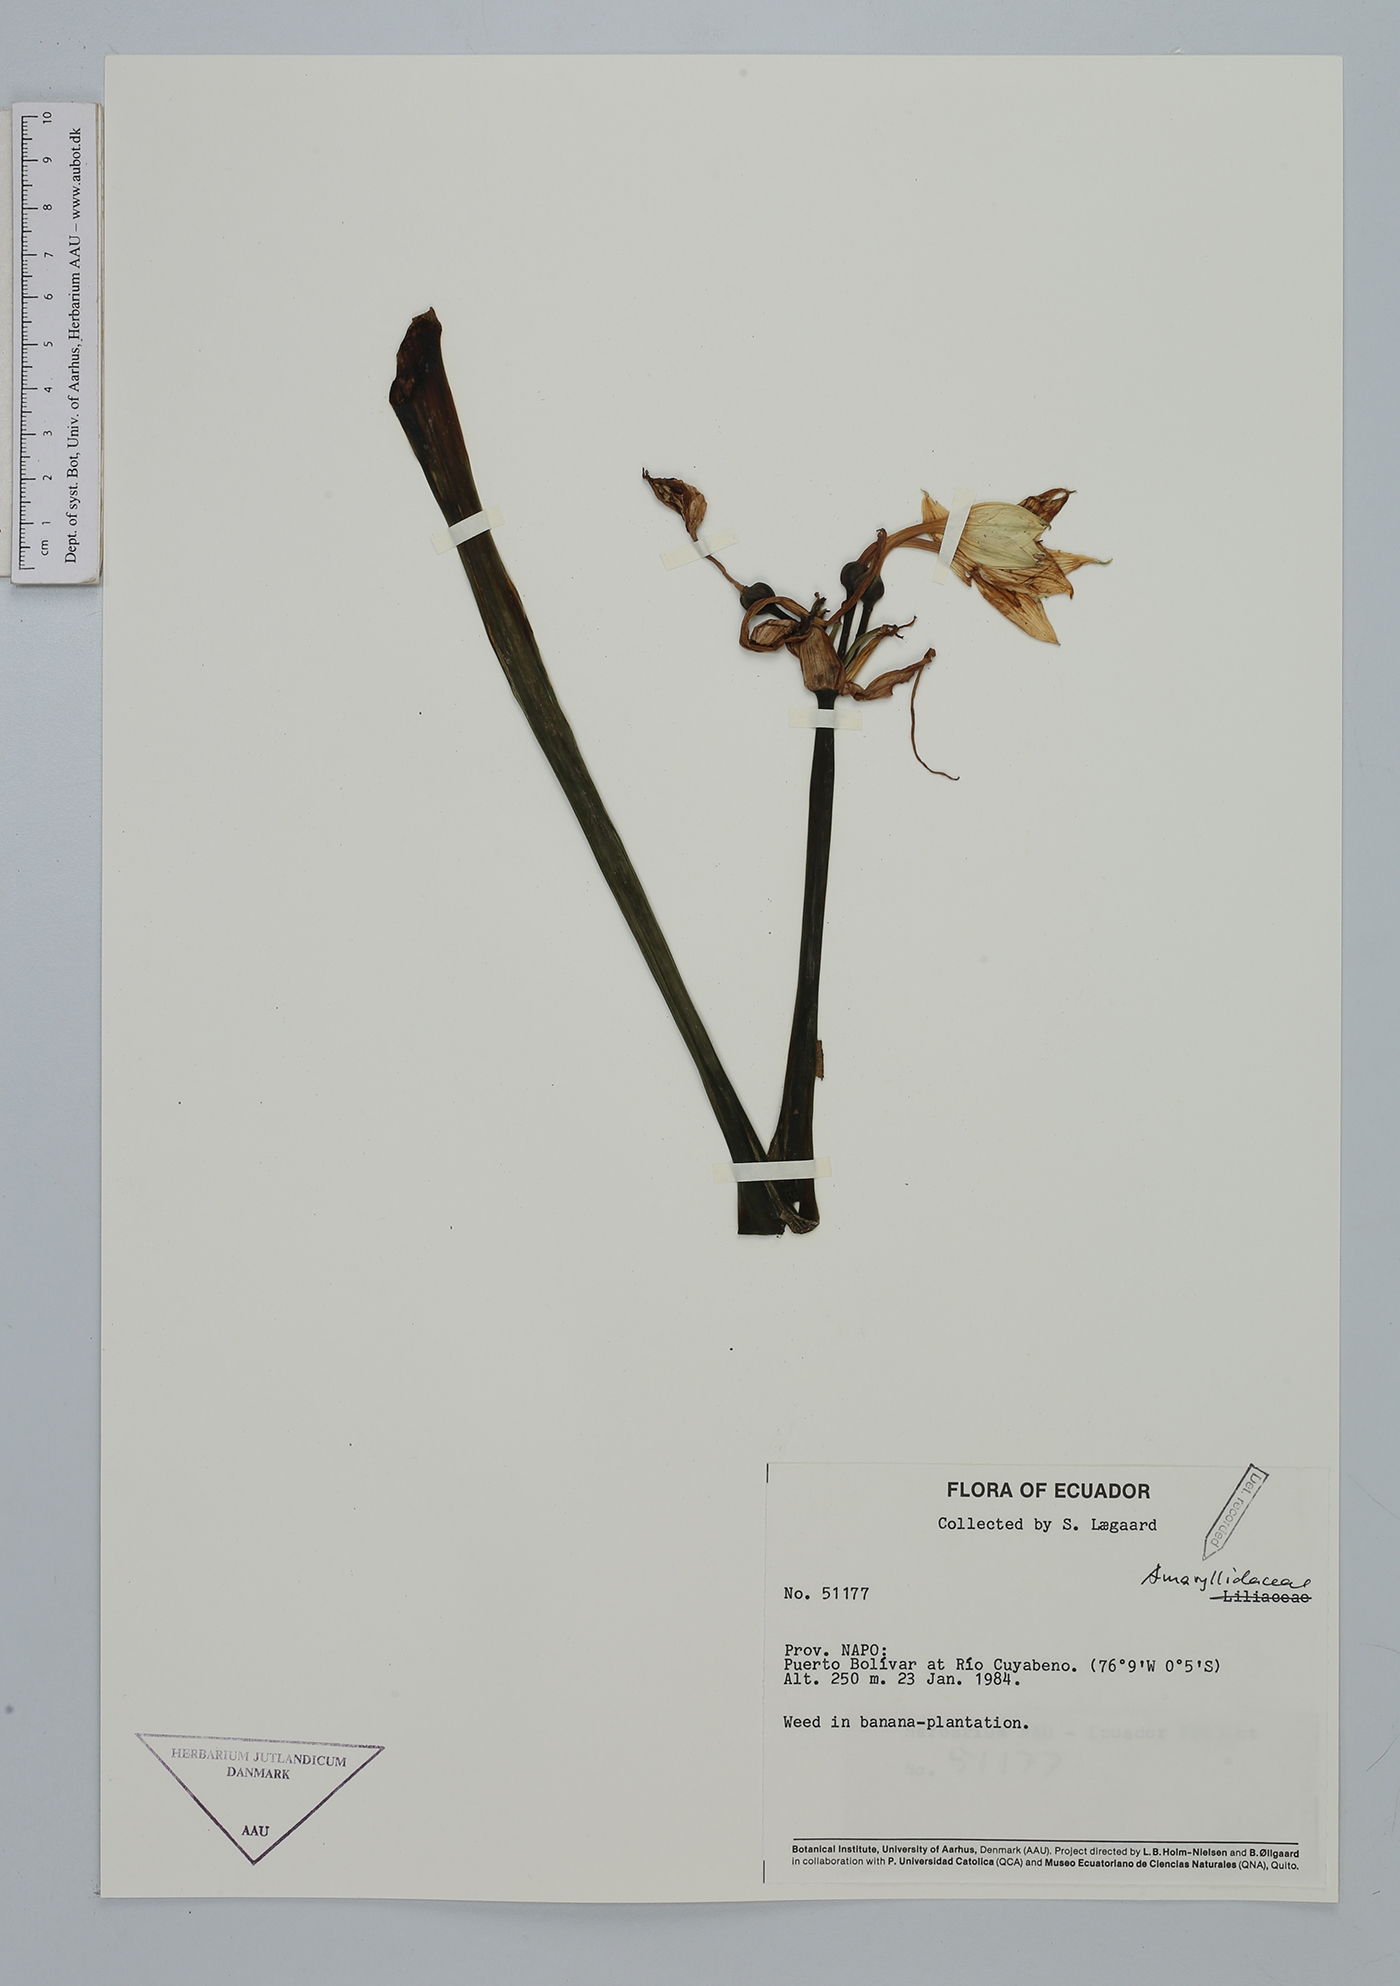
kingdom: Plantae
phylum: Tracheophyta
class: Liliopsida
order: Asparagales
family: Amaryllidaceae
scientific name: Amaryllidaceae
